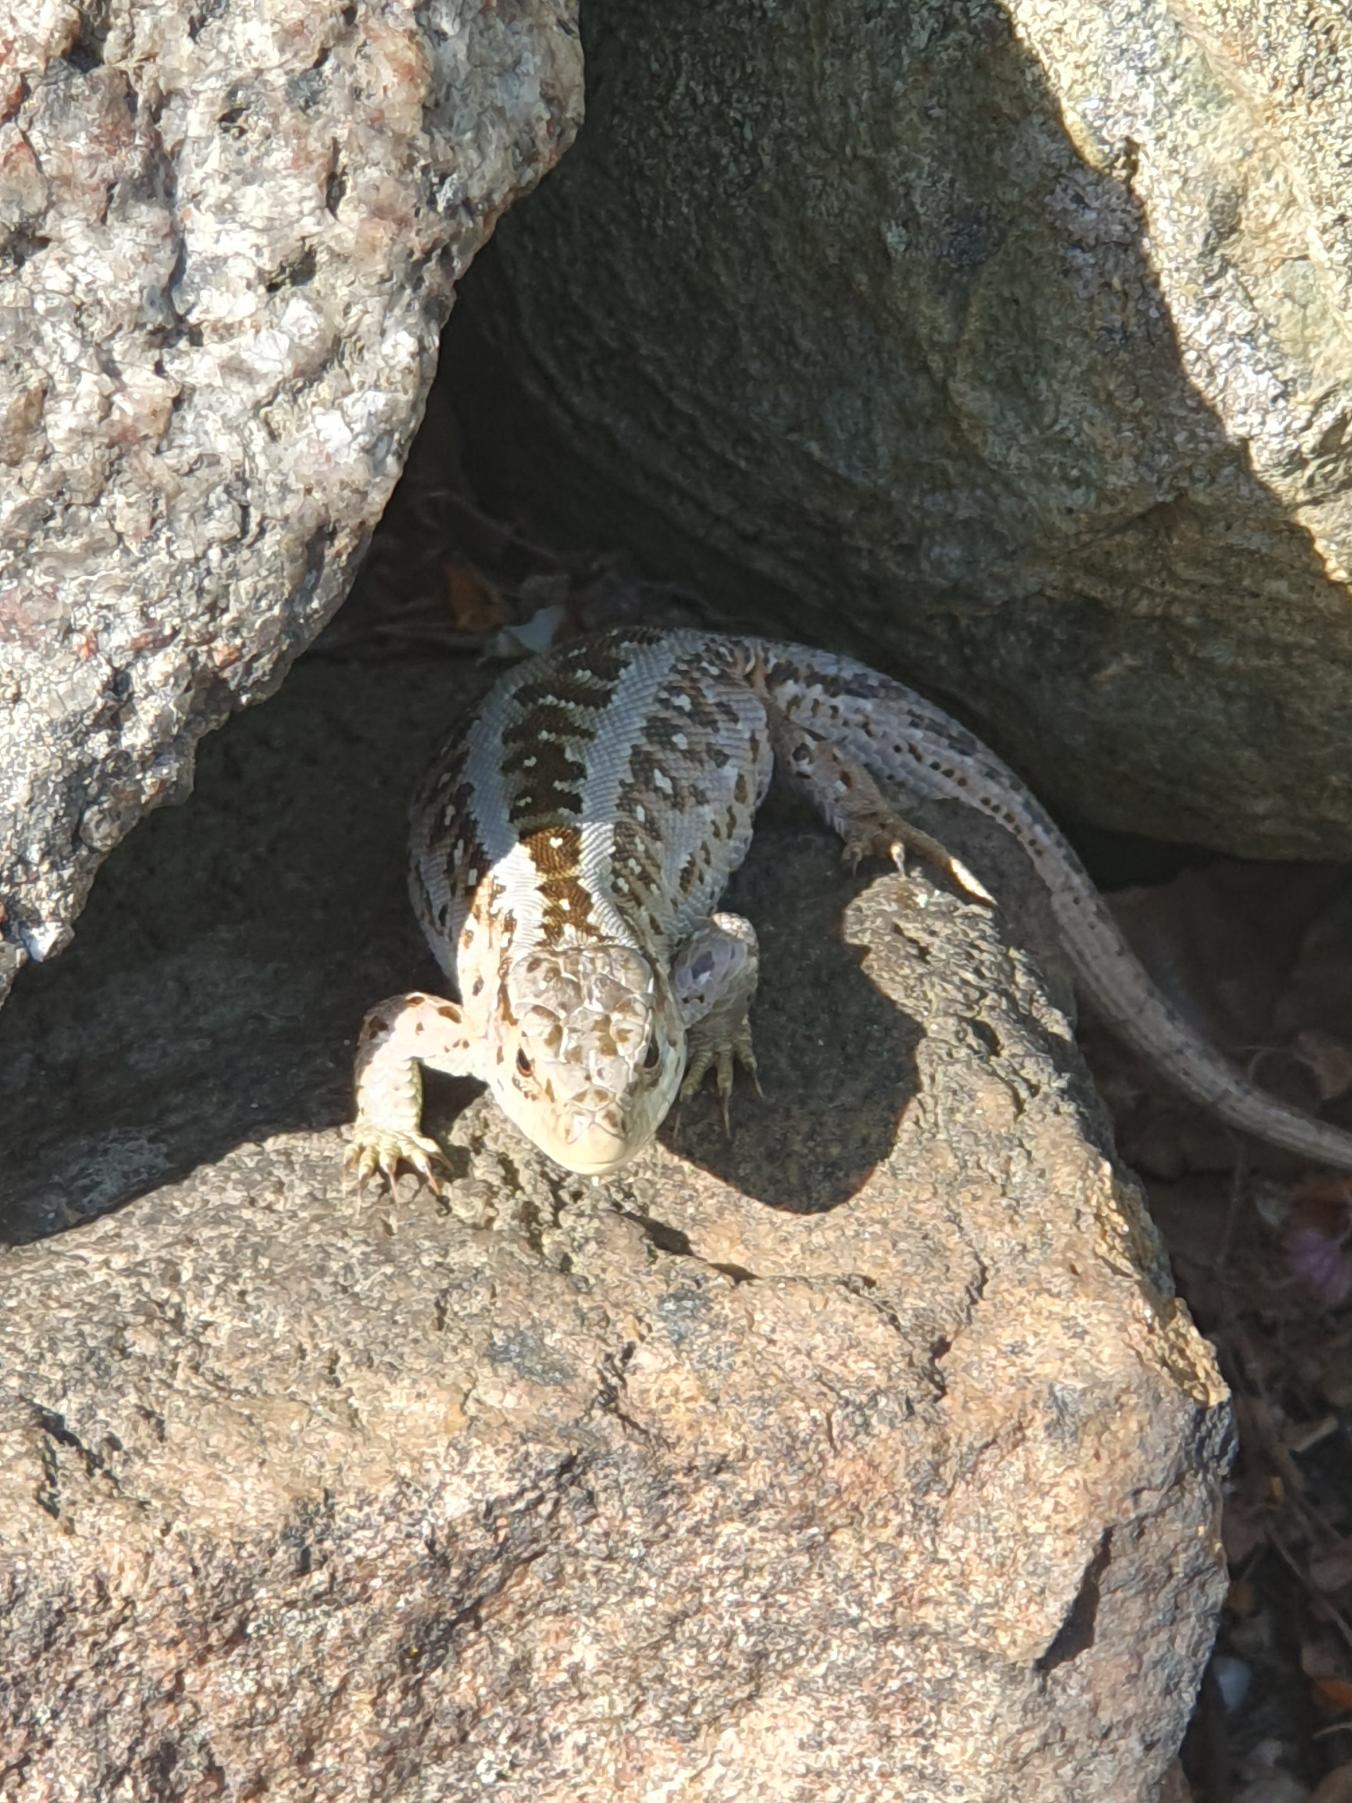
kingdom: Animalia
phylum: Chordata
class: Squamata
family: Lacertidae
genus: Lacerta
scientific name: Lacerta agilis
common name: Markfirben
